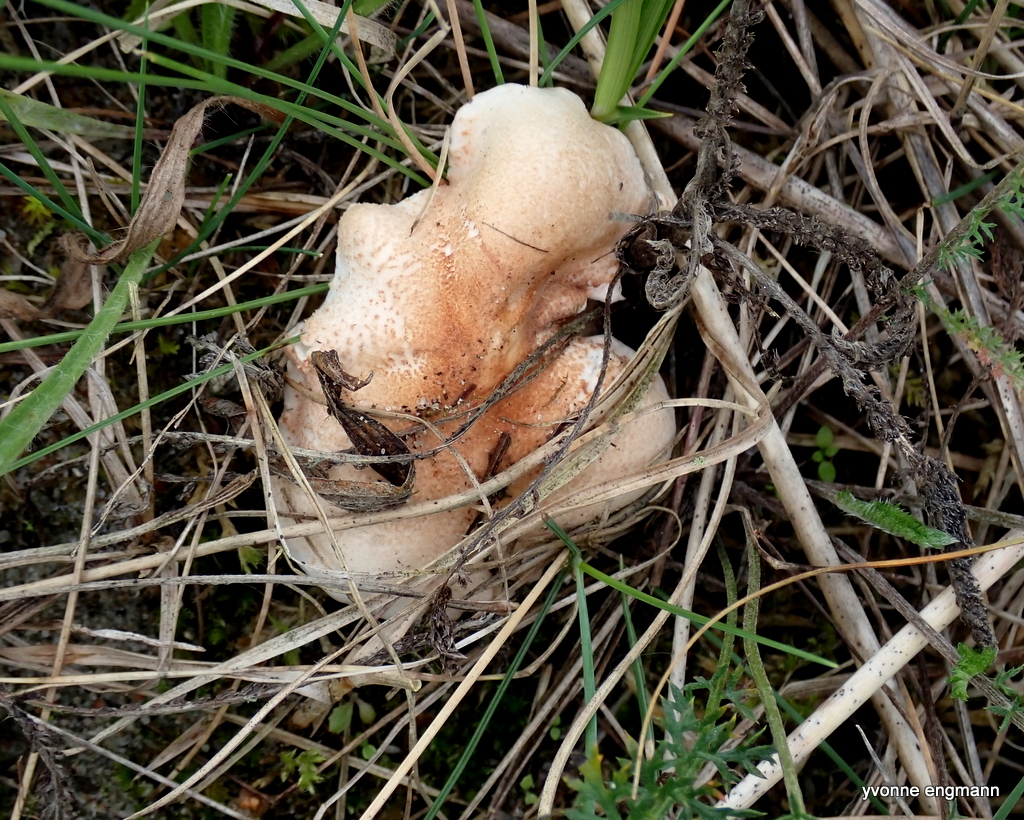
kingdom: Fungi
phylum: Basidiomycota
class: Agaricomycetes
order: Agaricales
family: Agaricaceae
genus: Lepiota
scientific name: Lepiota subincarnata
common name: kødfarvet parasolhat
